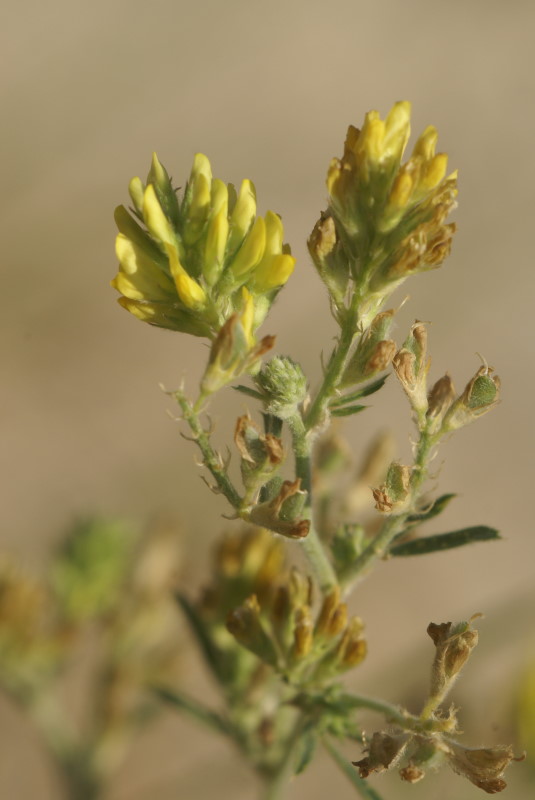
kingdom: Plantae
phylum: Tracheophyta
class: Magnoliopsida
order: Fabales
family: Fabaceae
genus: Medicago
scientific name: Medicago falcata
